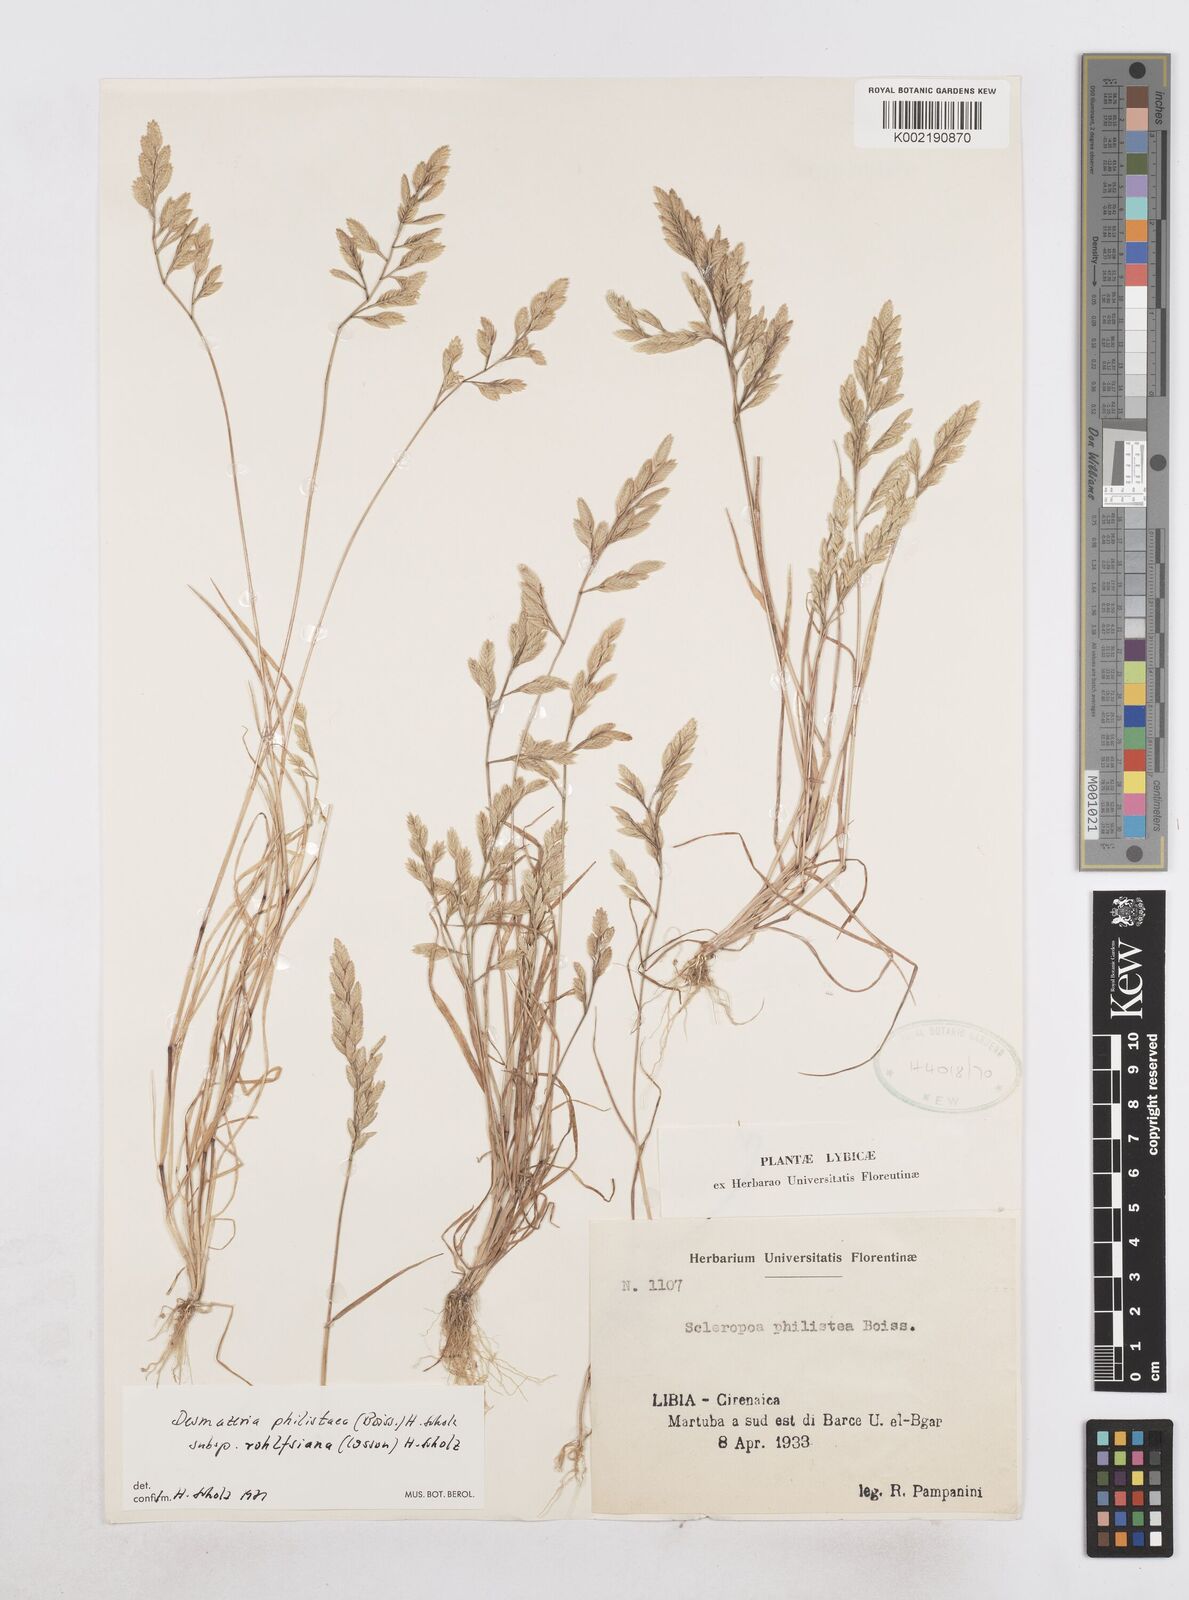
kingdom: Plantae
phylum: Tracheophyta
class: Liliopsida
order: Poales
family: Poaceae
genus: Desmazeria
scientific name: Desmazeria philistaea
